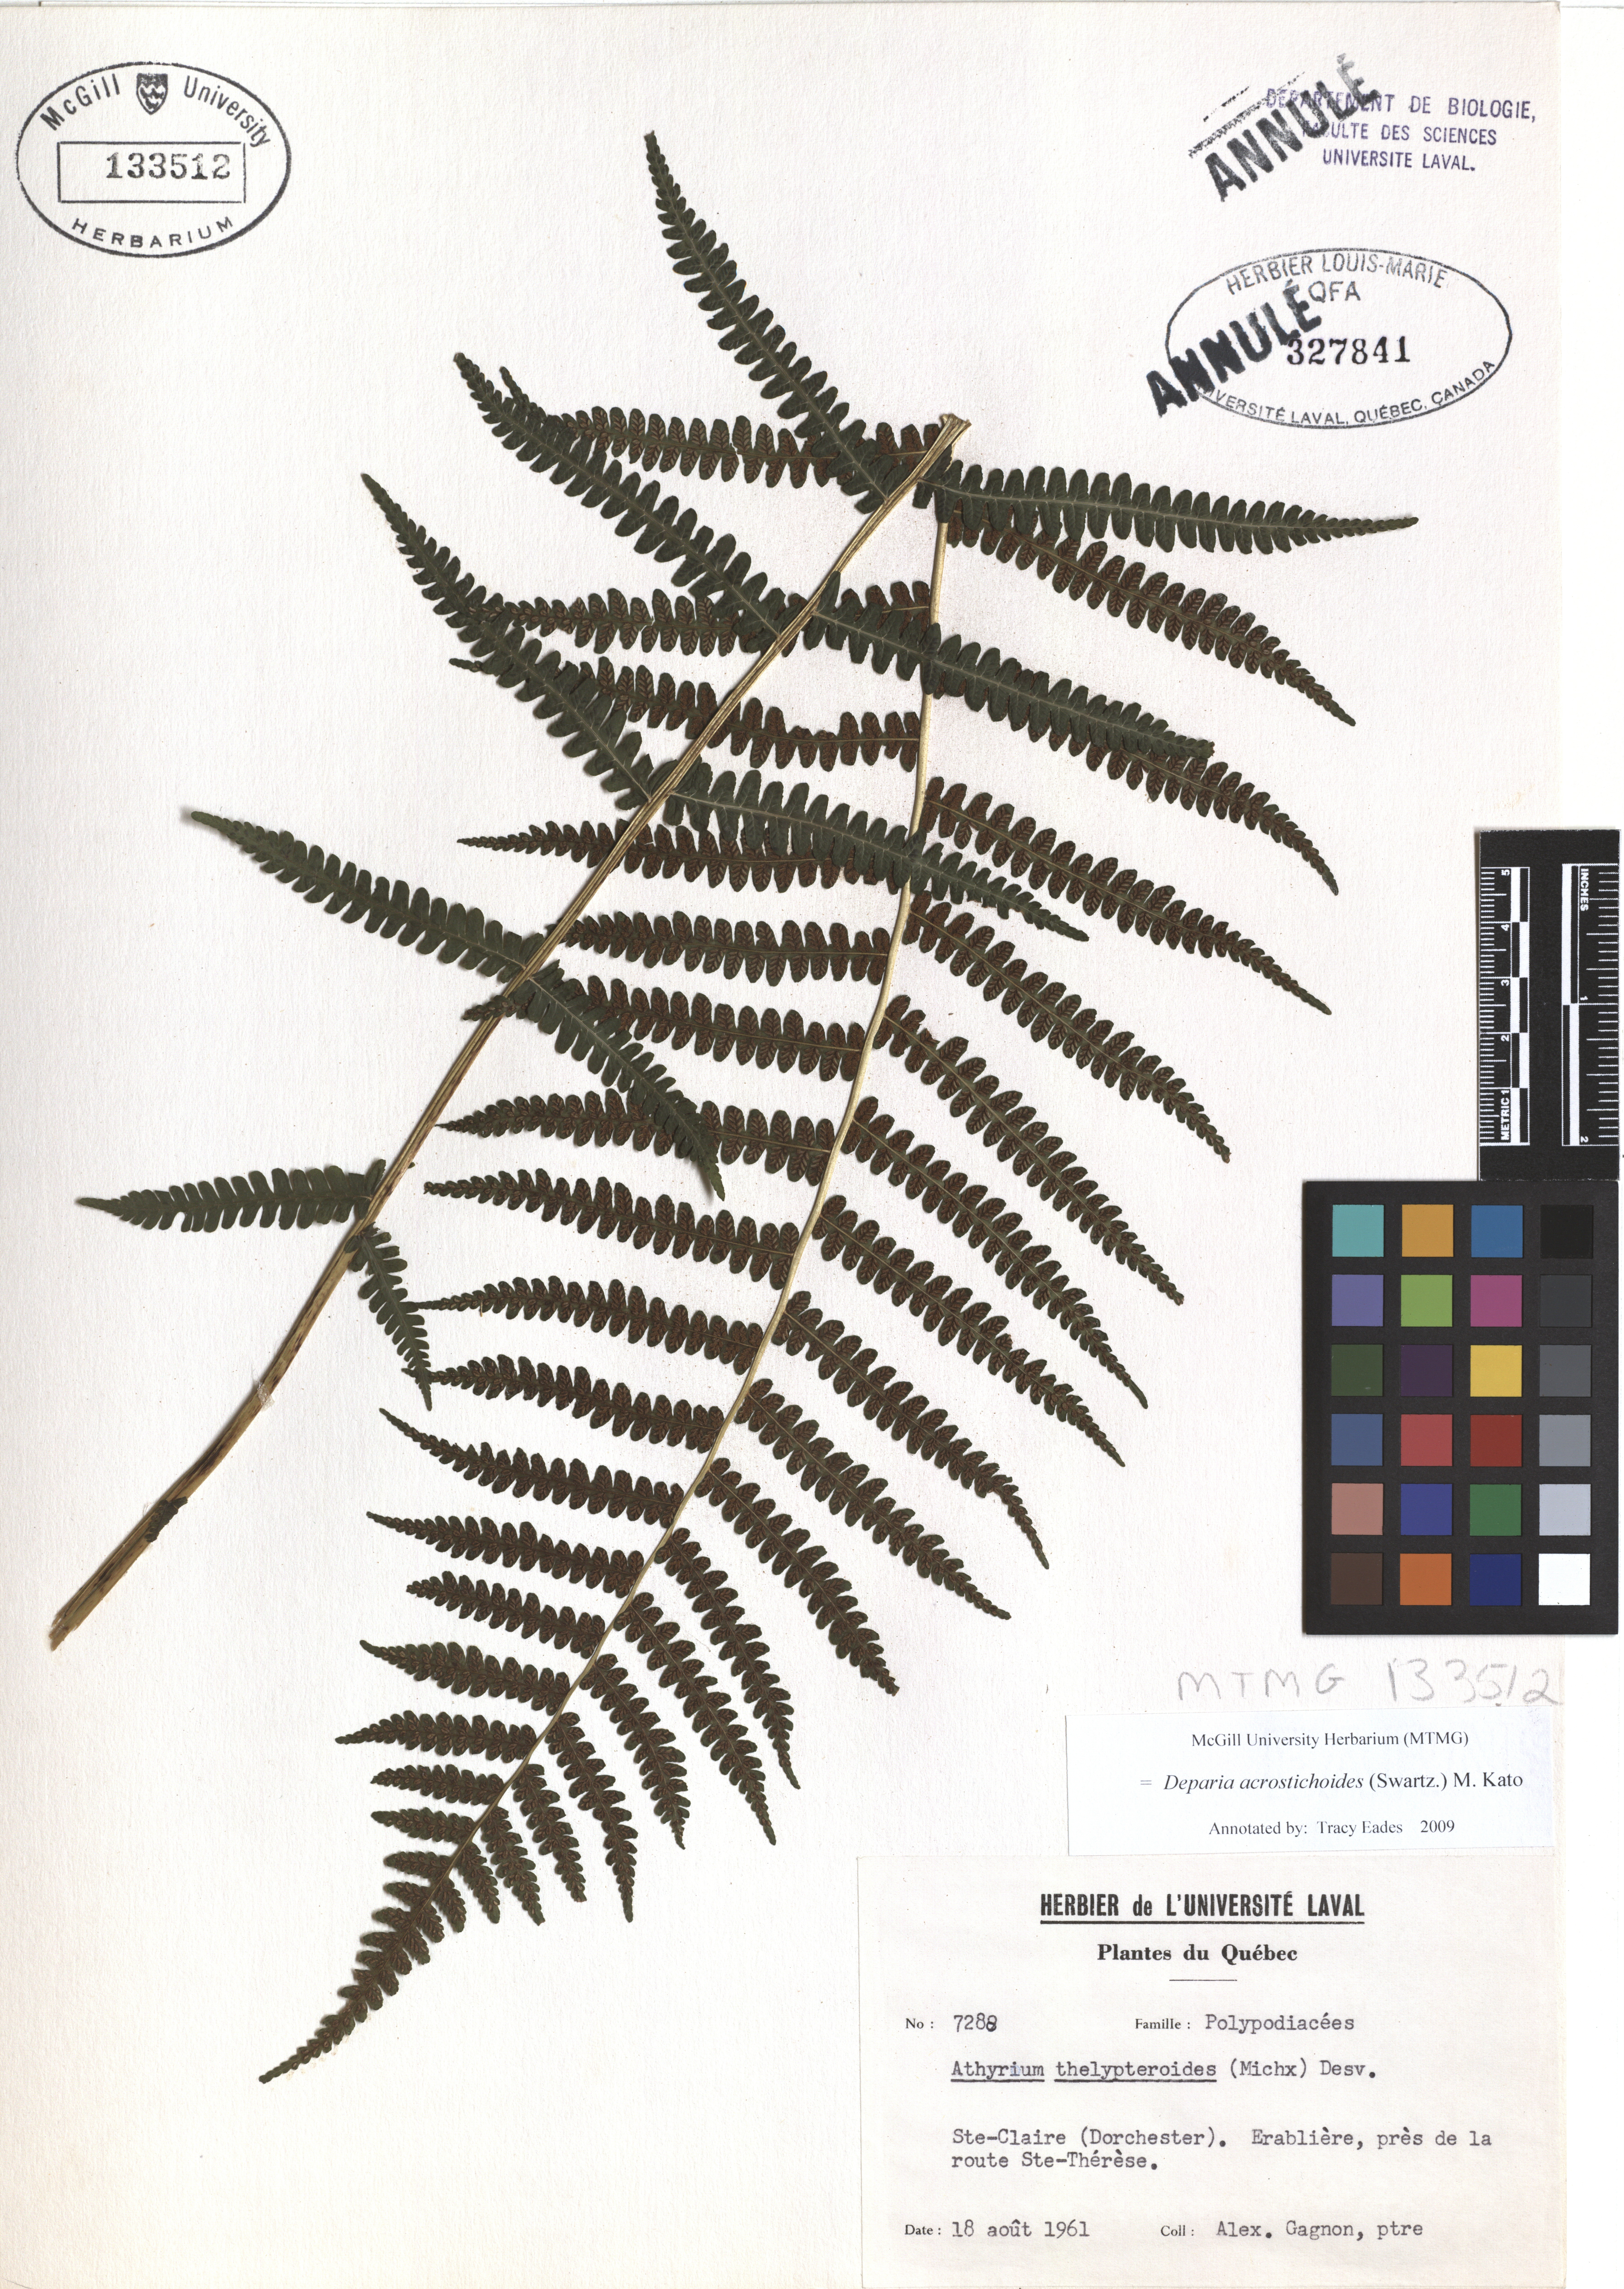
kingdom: Plantae
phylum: Tracheophyta
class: Polypodiopsida
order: Polypodiales
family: Athyriaceae
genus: Deparia
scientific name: Deparia acrostichoides
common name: Silver false spleenwort
